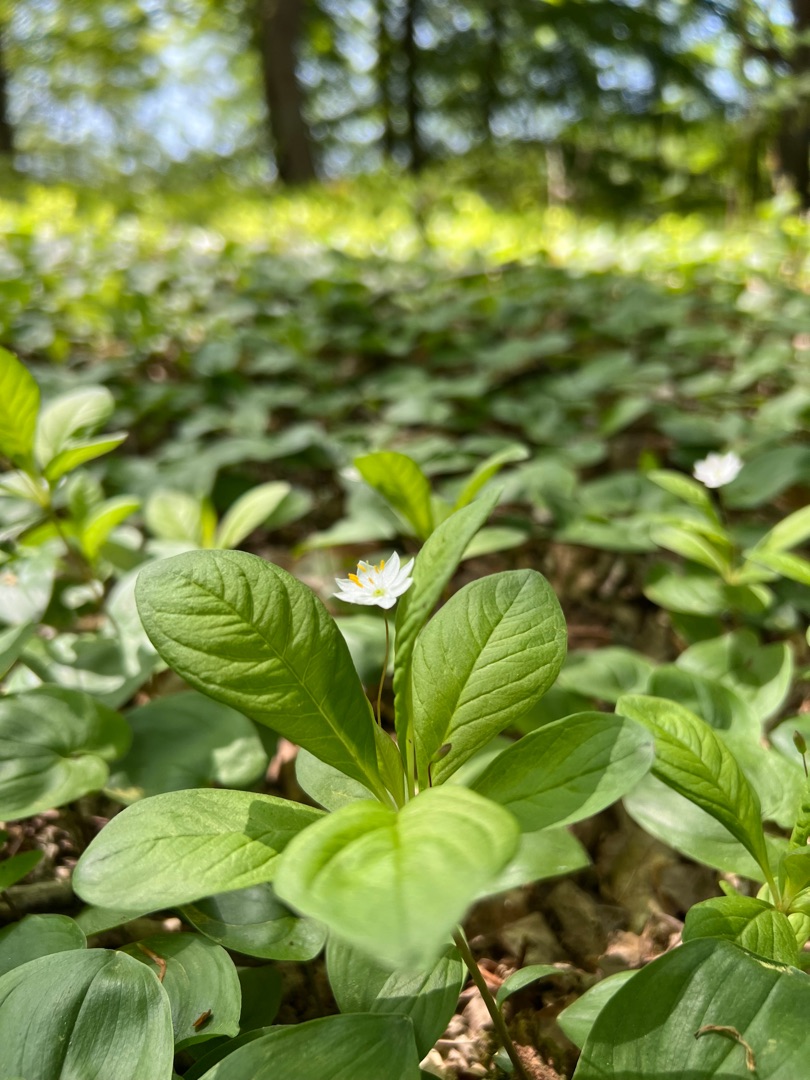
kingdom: Plantae
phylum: Tracheophyta
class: Magnoliopsida
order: Ericales
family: Primulaceae
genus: Lysimachia
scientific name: Lysimachia europaea
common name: Skovstjerne
